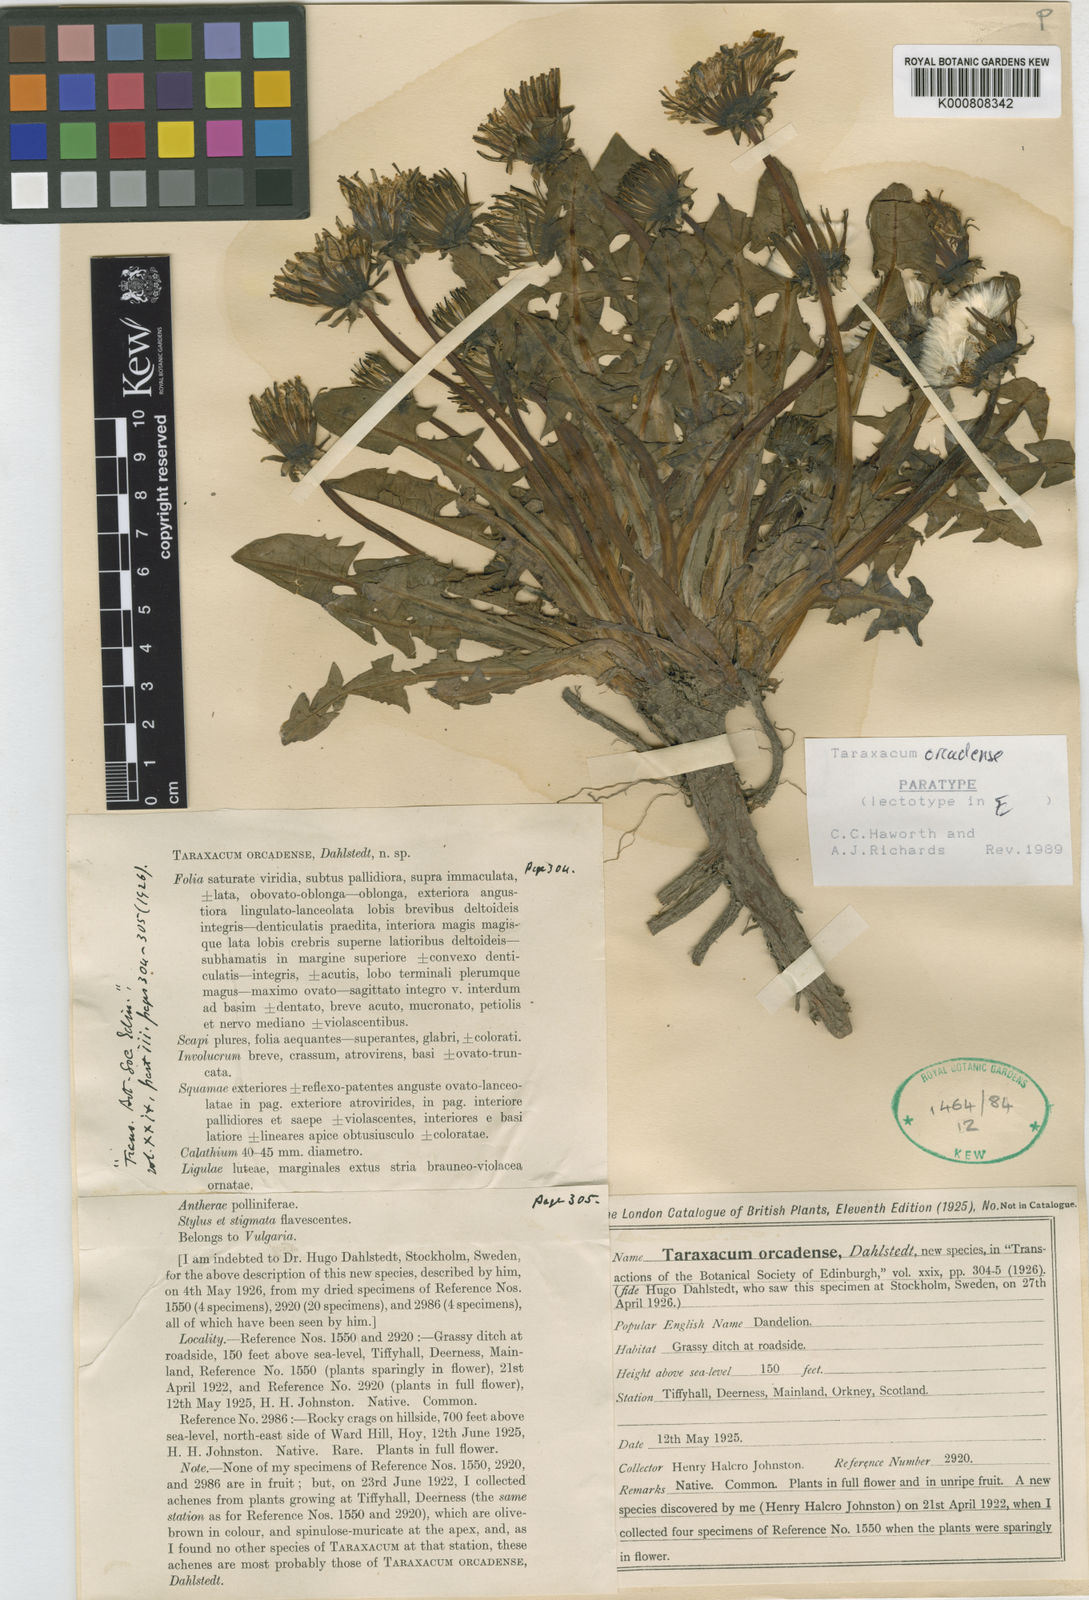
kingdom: Plantae
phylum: Tracheophyta
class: Magnoliopsida
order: Asterales
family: Asteraceae
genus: Taraxacum
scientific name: Taraxacum orcadense
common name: Large-lobed dandelion
